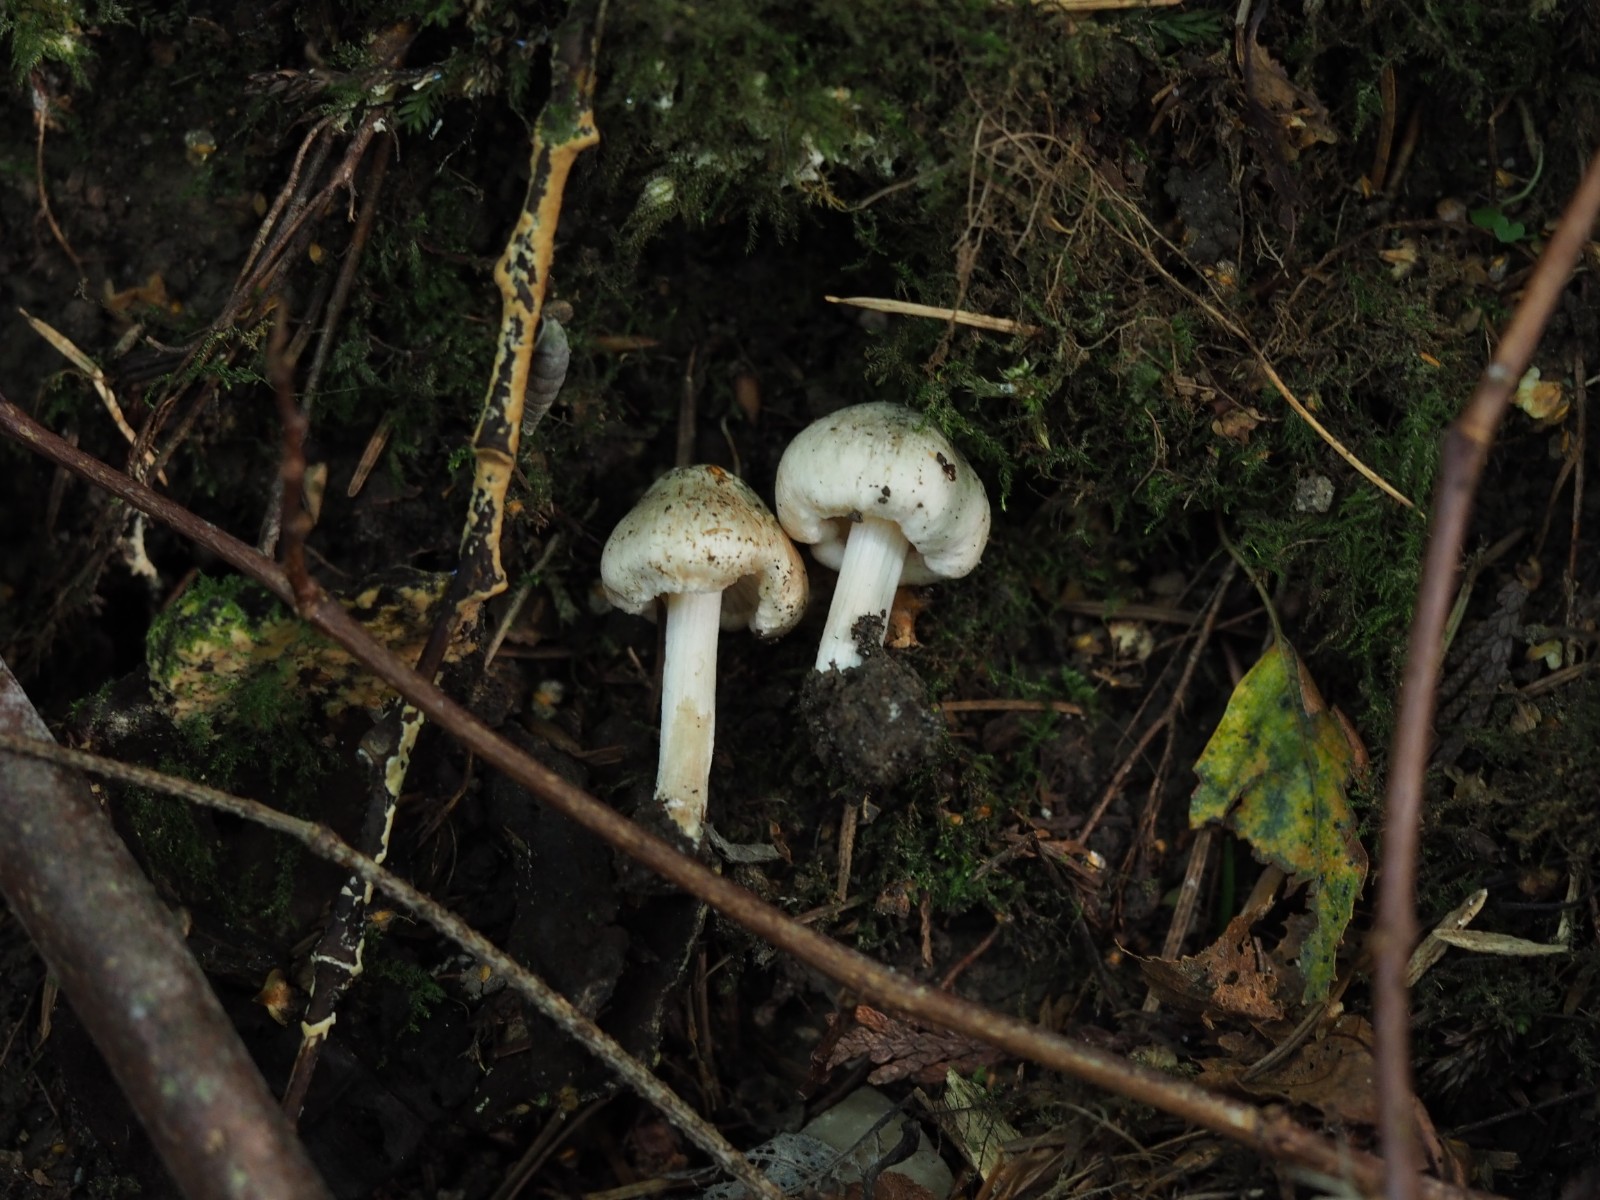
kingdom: Fungi
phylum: Basidiomycota
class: Agaricomycetes
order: Agaricales
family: Inocybaceae
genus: Inocybe
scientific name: Inocybe corydalina
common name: grønpuklet trævlhat
